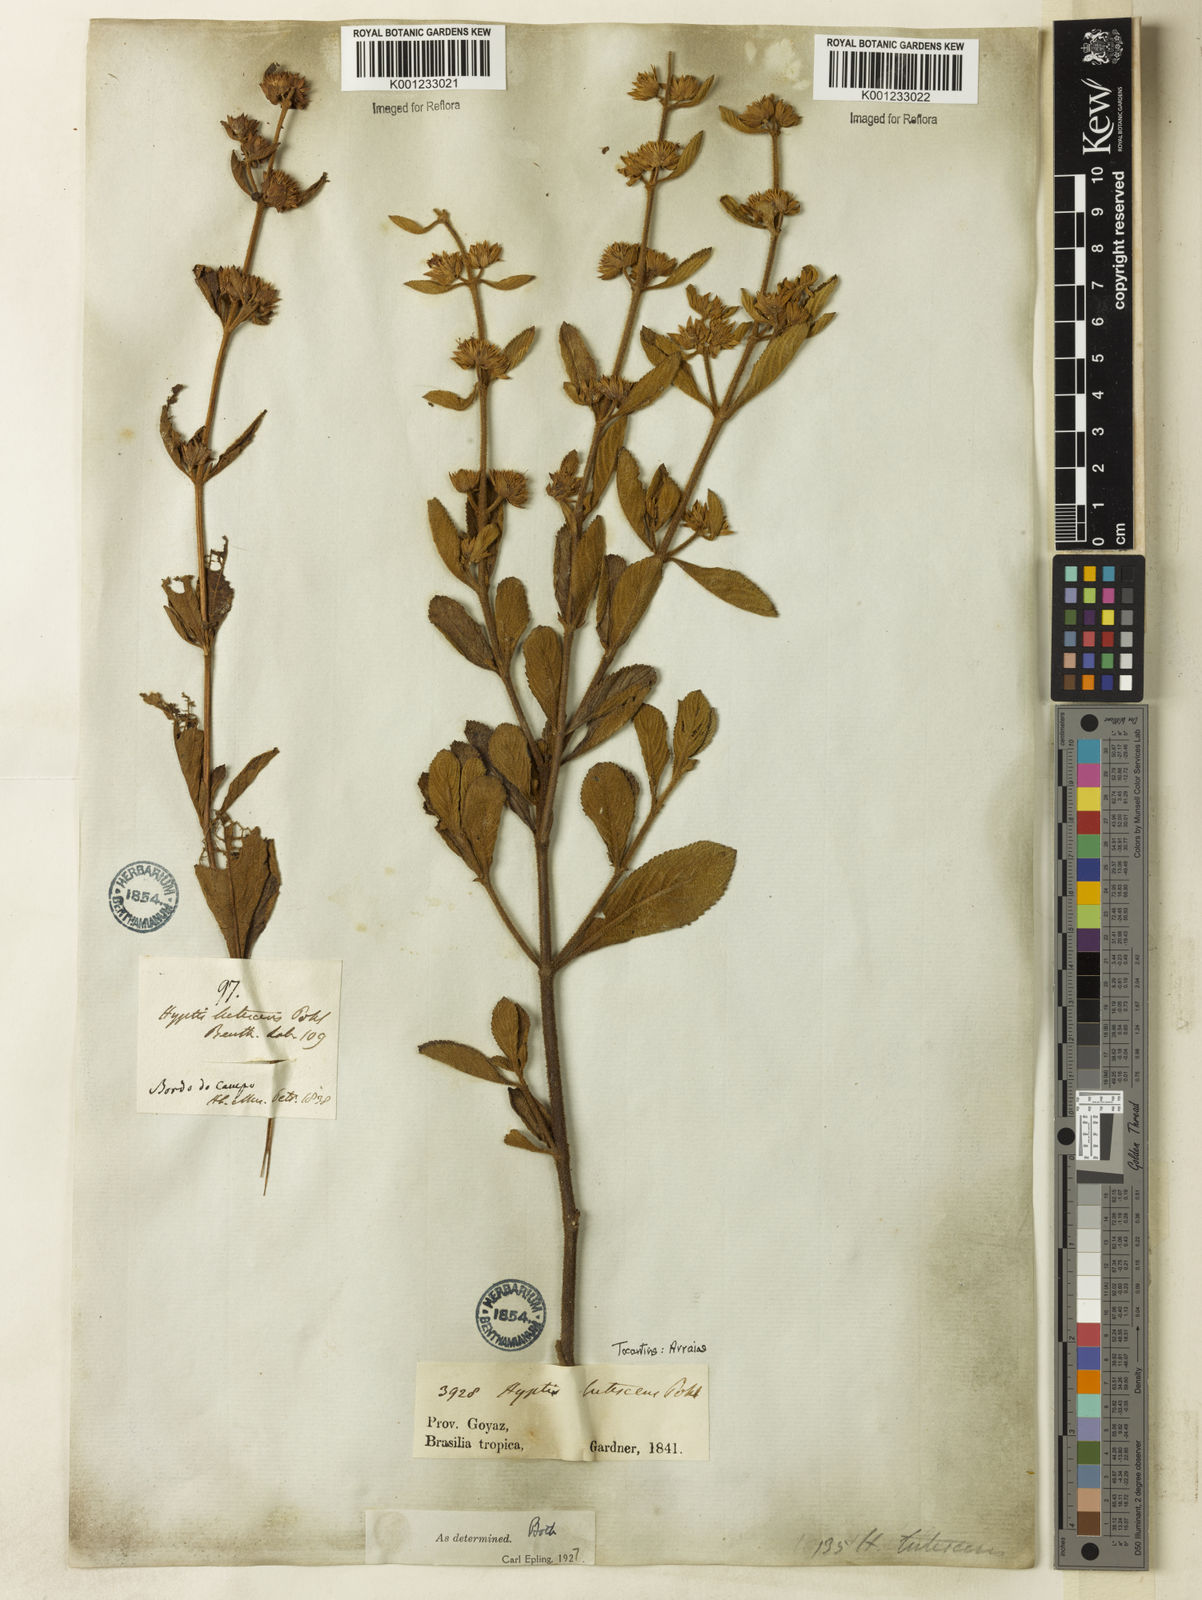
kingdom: Plantae
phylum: Tracheophyta
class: Magnoliopsida
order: Lamiales
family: Lamiaceae
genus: Hyptis
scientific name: Hyptis lutescens
